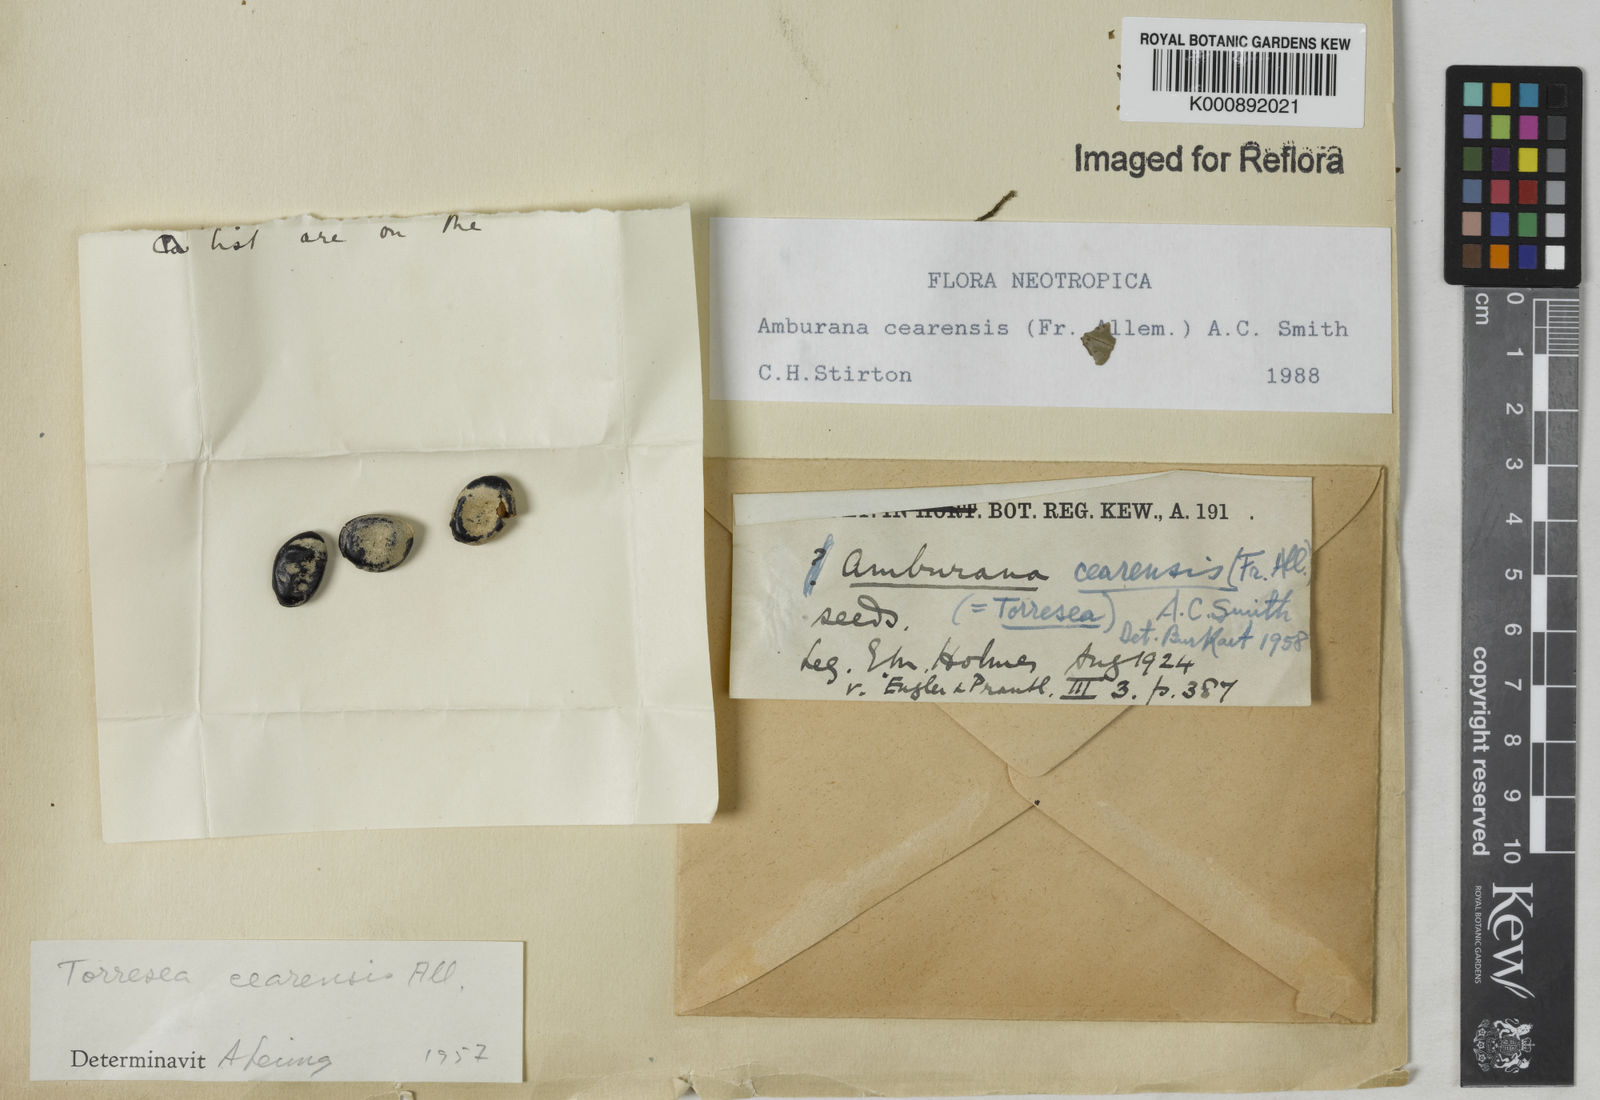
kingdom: Plantae
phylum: Tracheophyta
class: Magnoliopsida
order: Fabales
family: Fabaceae
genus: Amburana
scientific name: Amburana
